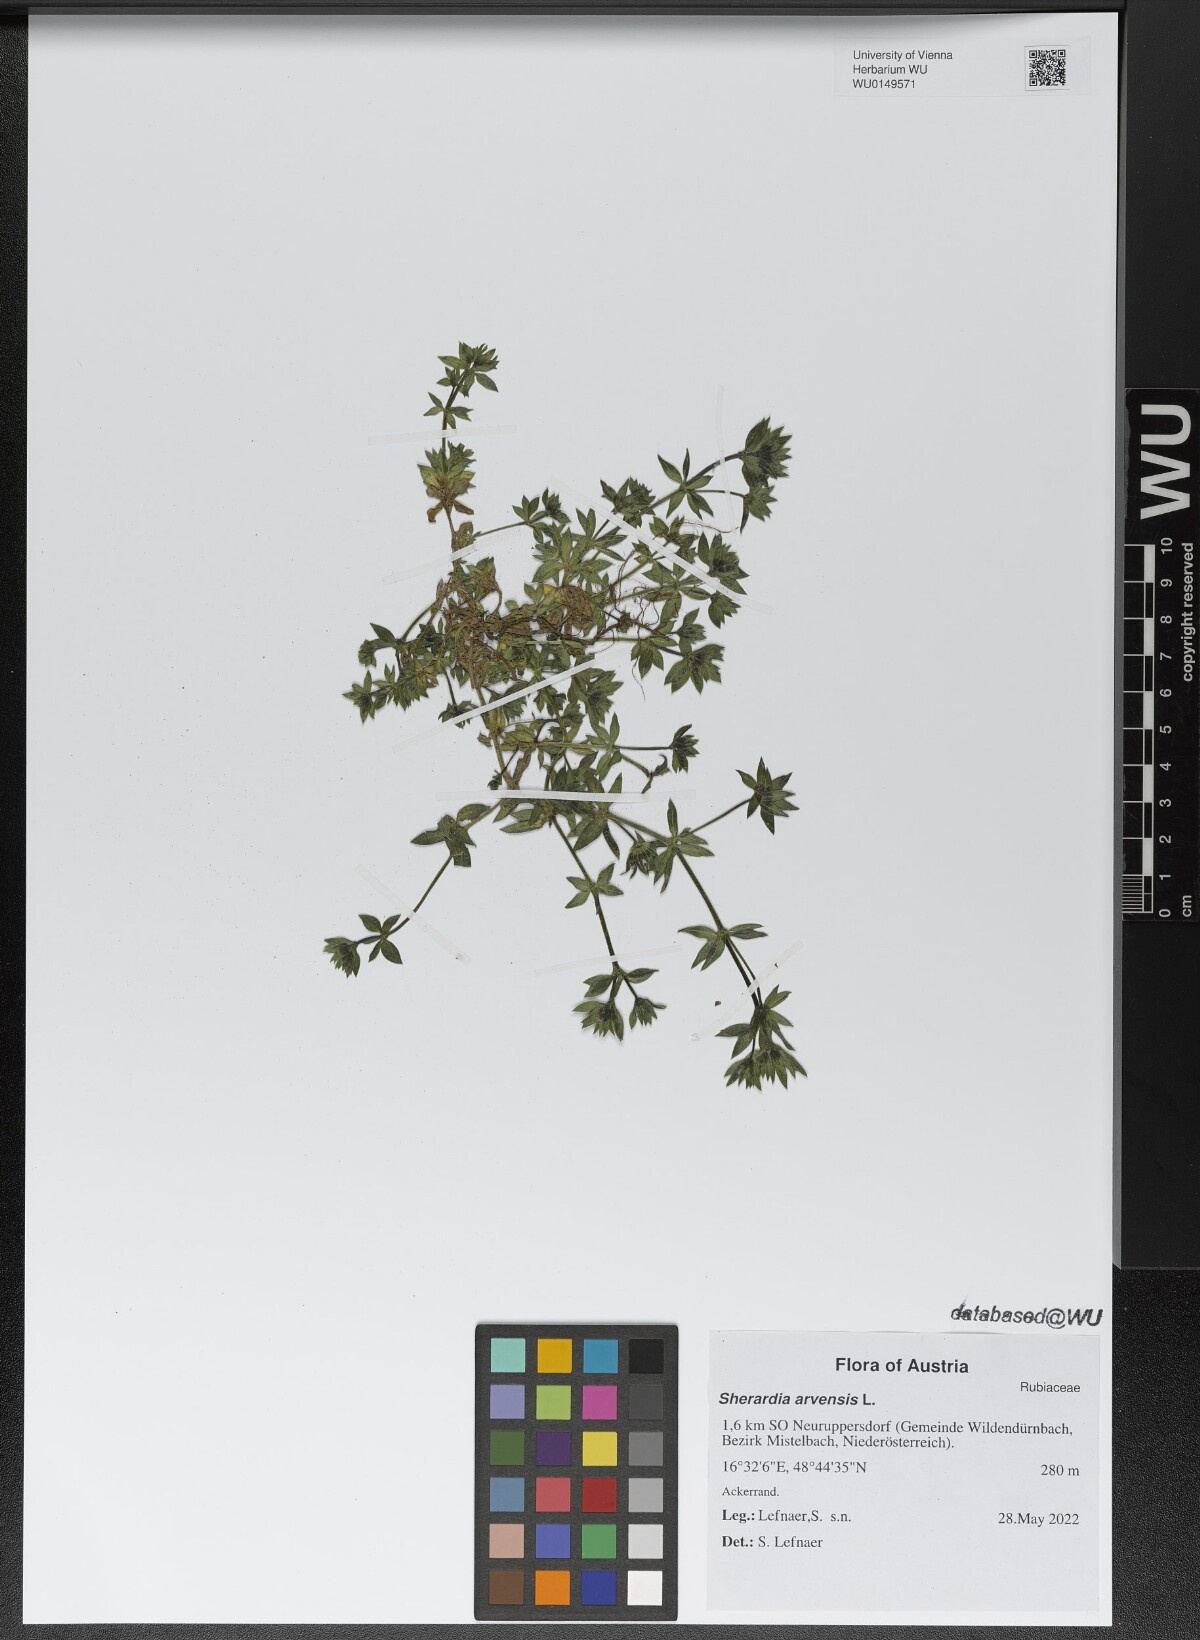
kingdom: Plantae
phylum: Tracheophyta
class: Magnoliopsida
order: Gentianales
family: Rubiaceae
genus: Sherardia
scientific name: Sherardia arvensis
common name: Field madder
